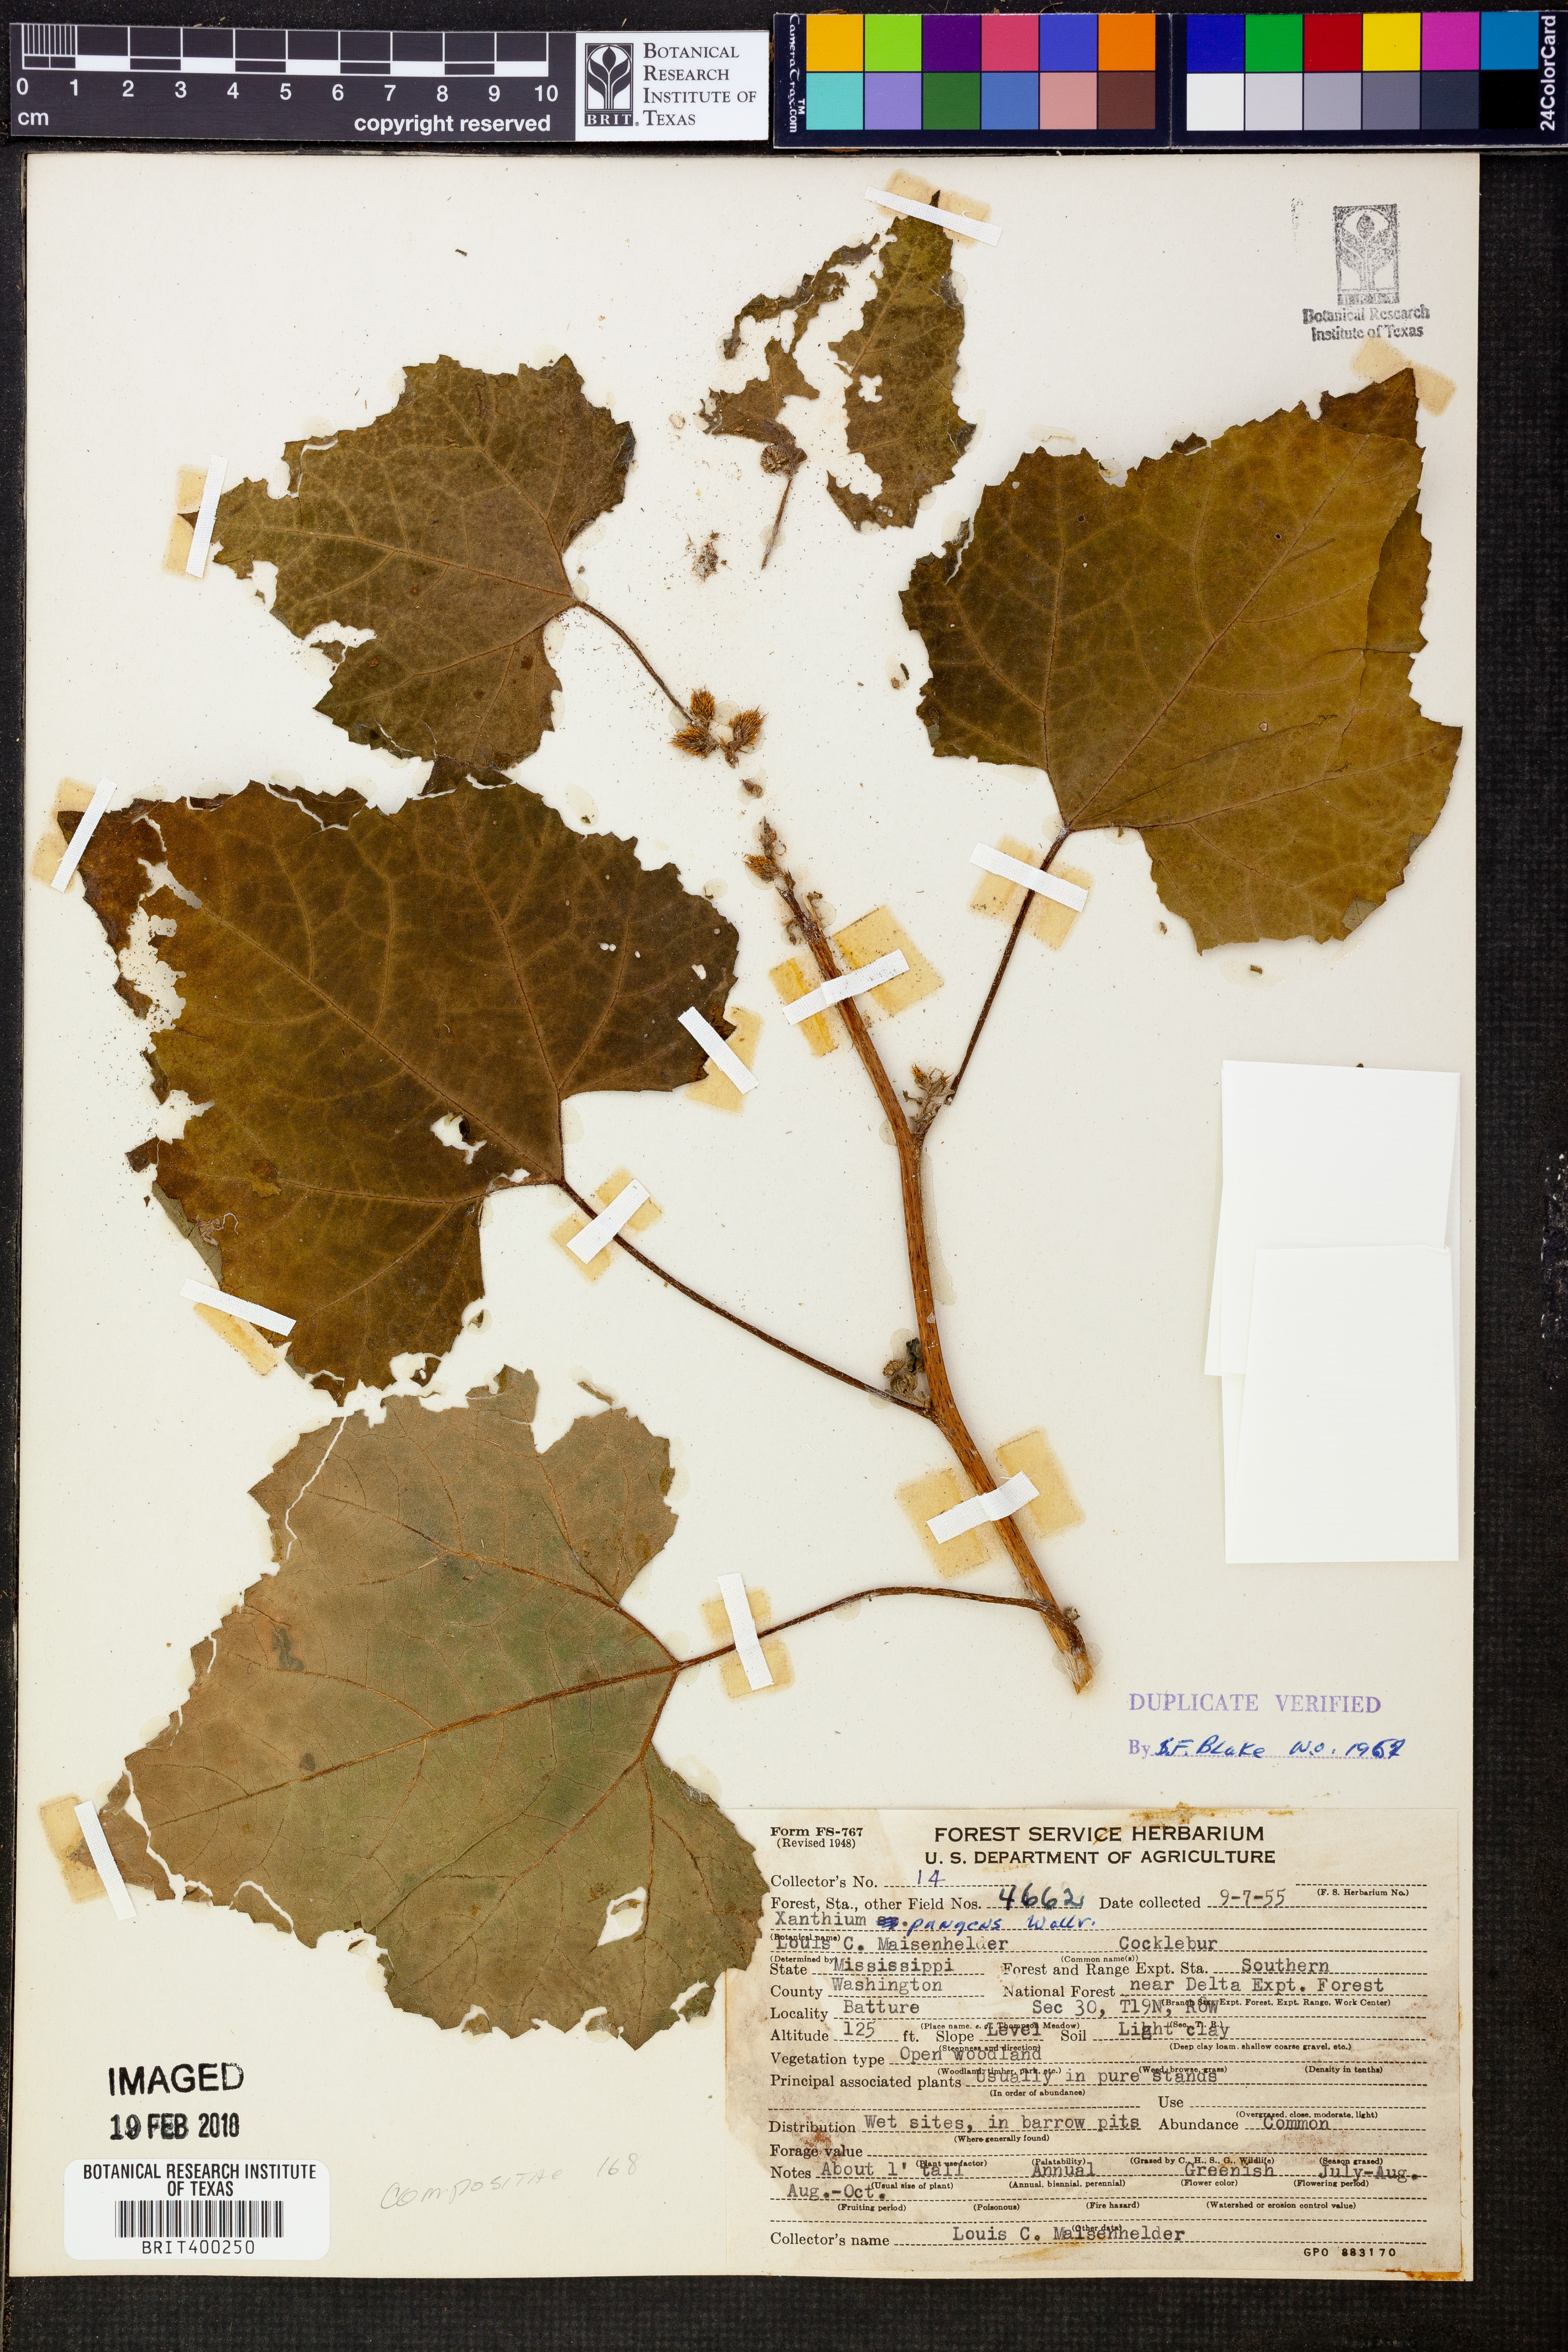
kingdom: Plantae
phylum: Tracheophyta
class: Magnoliopsida
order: Asterales
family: Asteraceae
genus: Xanthium
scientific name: Xanthium occidentale
